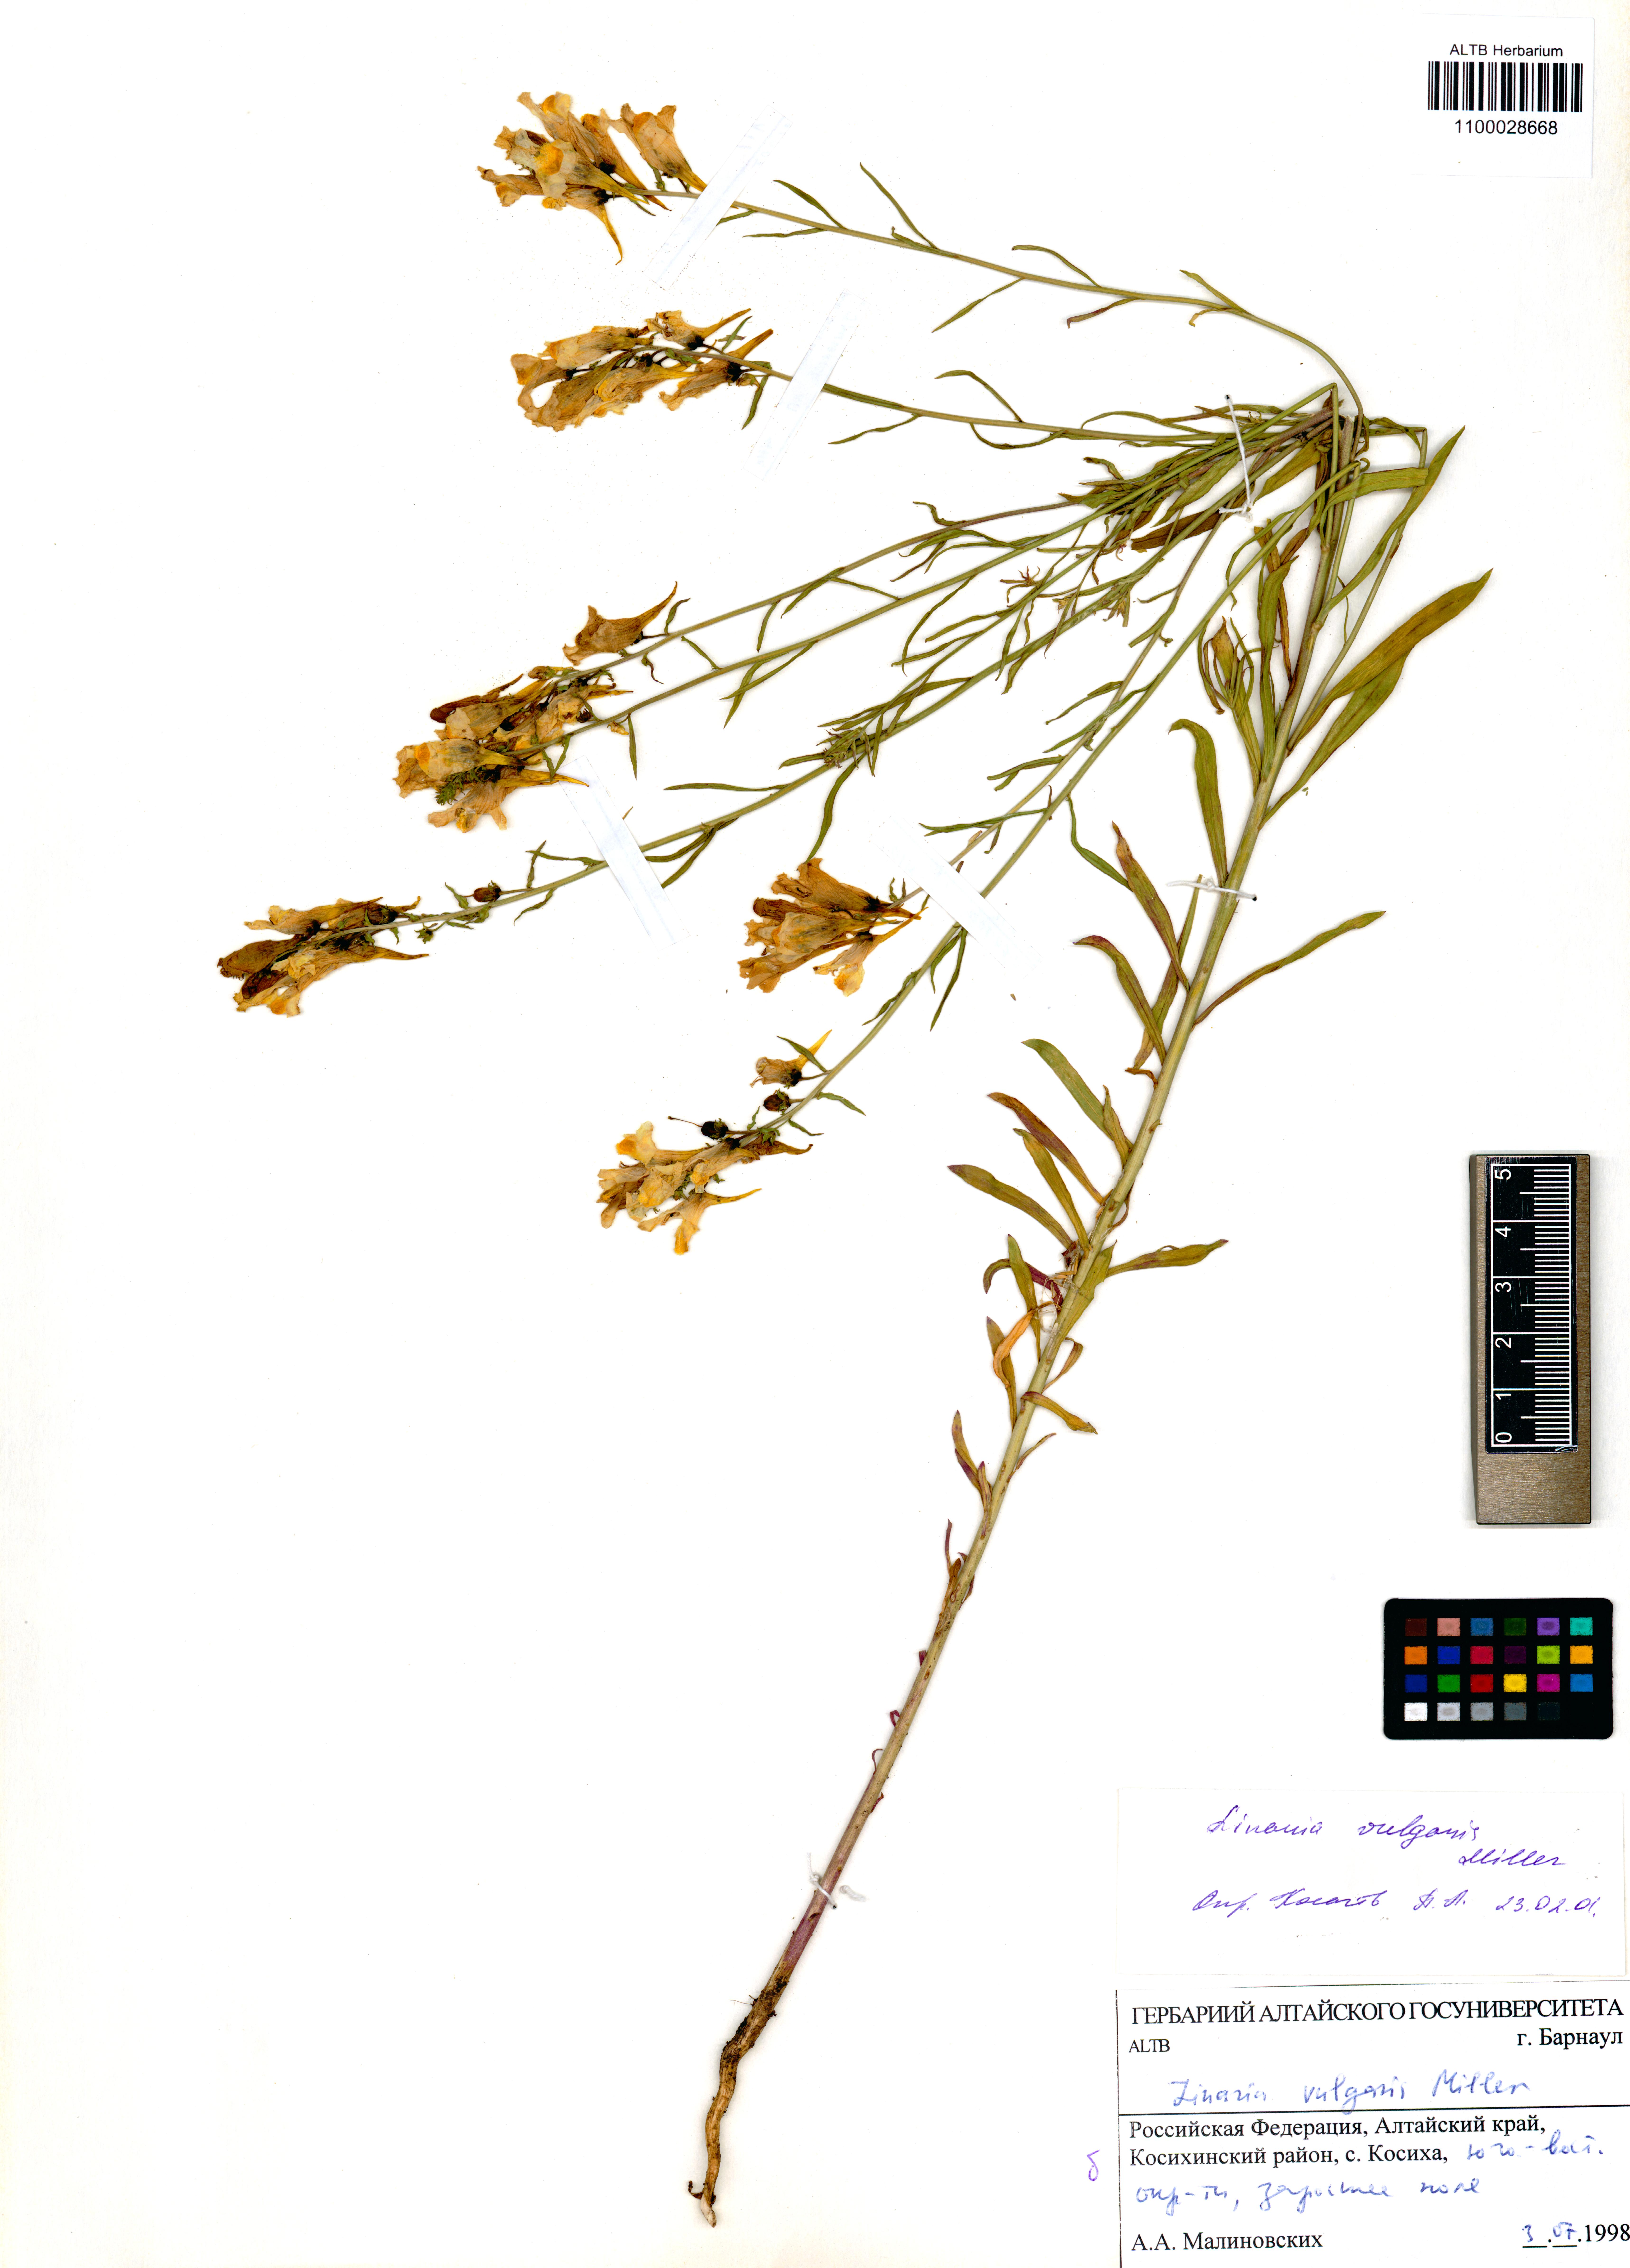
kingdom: Plantae
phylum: Tracheophyta
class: Magnoliopsida
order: Lamiales
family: Plantaginaceae
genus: Linaria
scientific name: Linaria vulgaris
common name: Butter and eggs
